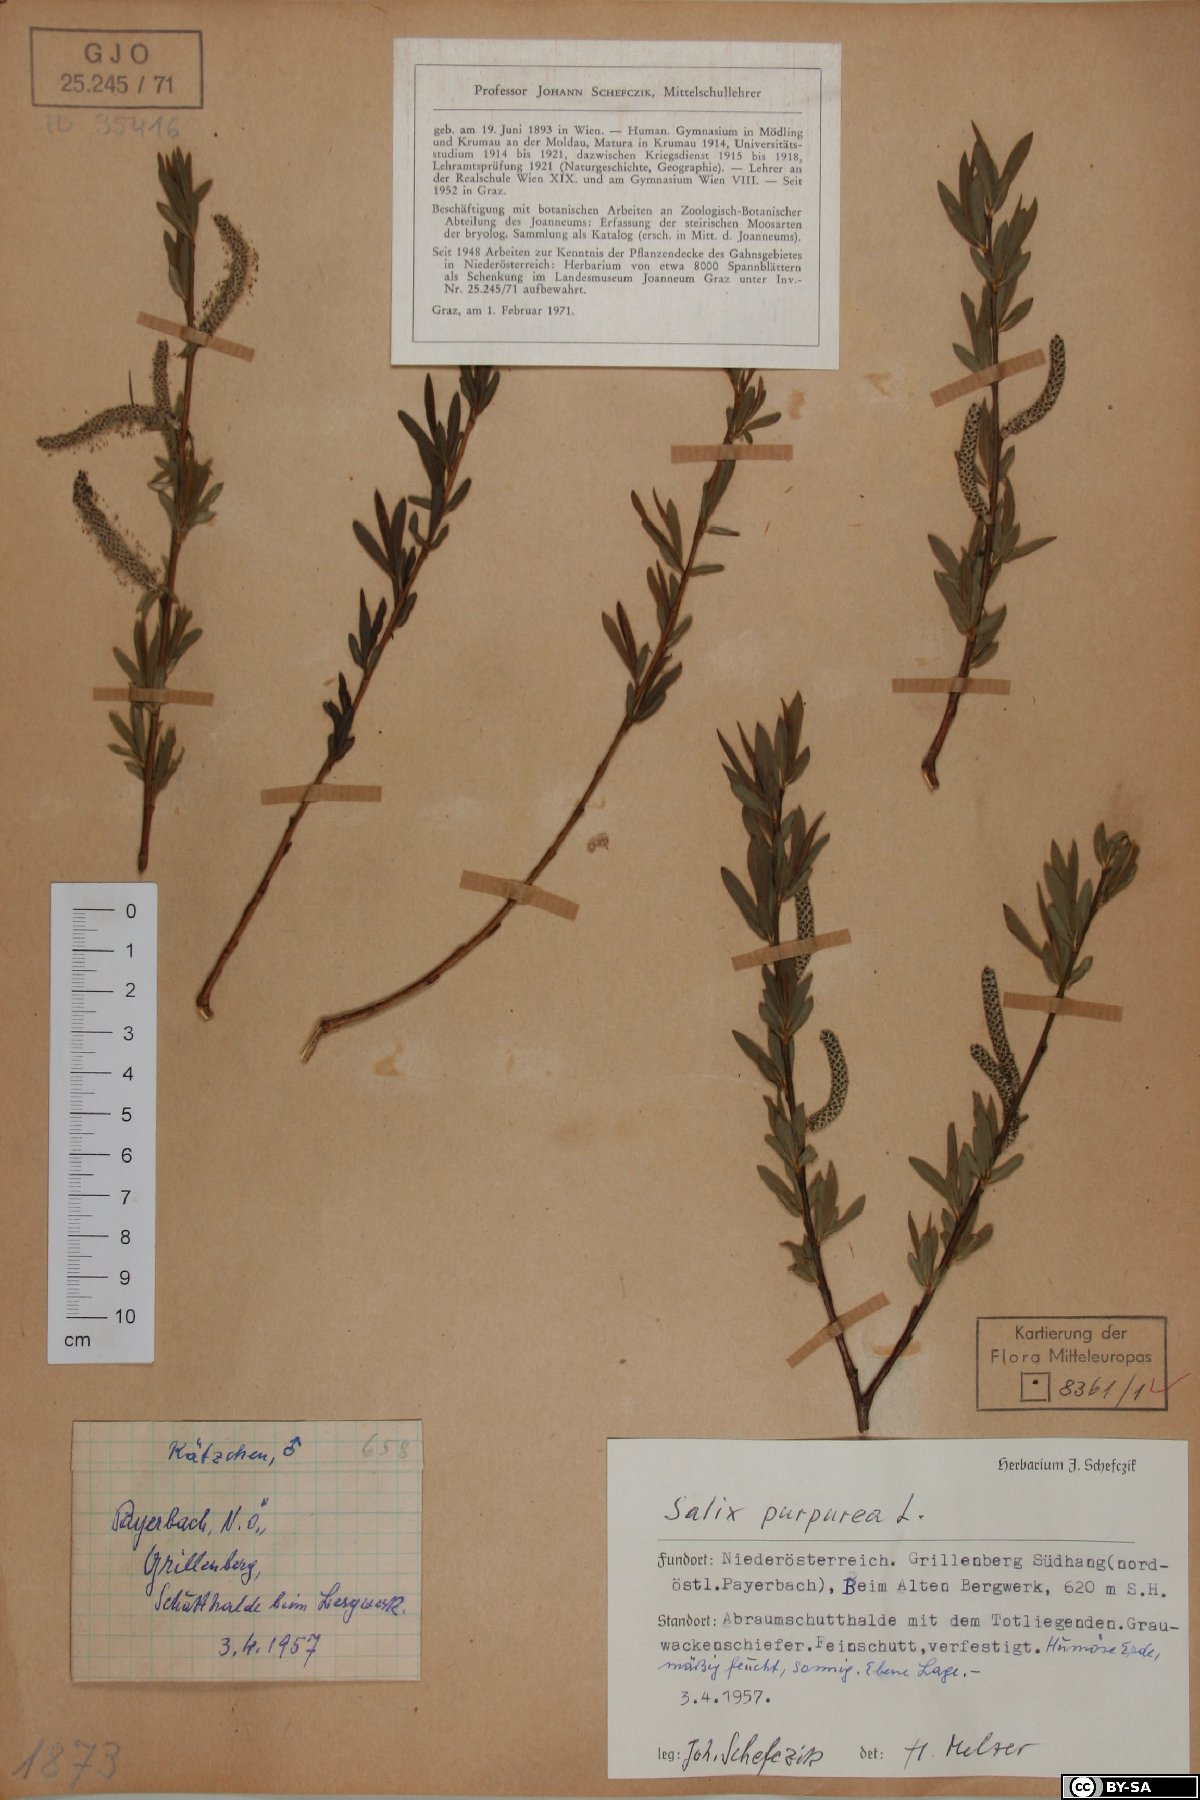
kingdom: Plantae
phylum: Tracheophyta
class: Magnoliopsida
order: Malpighiales
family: Salicaceae
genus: Salix
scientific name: Salix purpurea
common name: Purple willow
